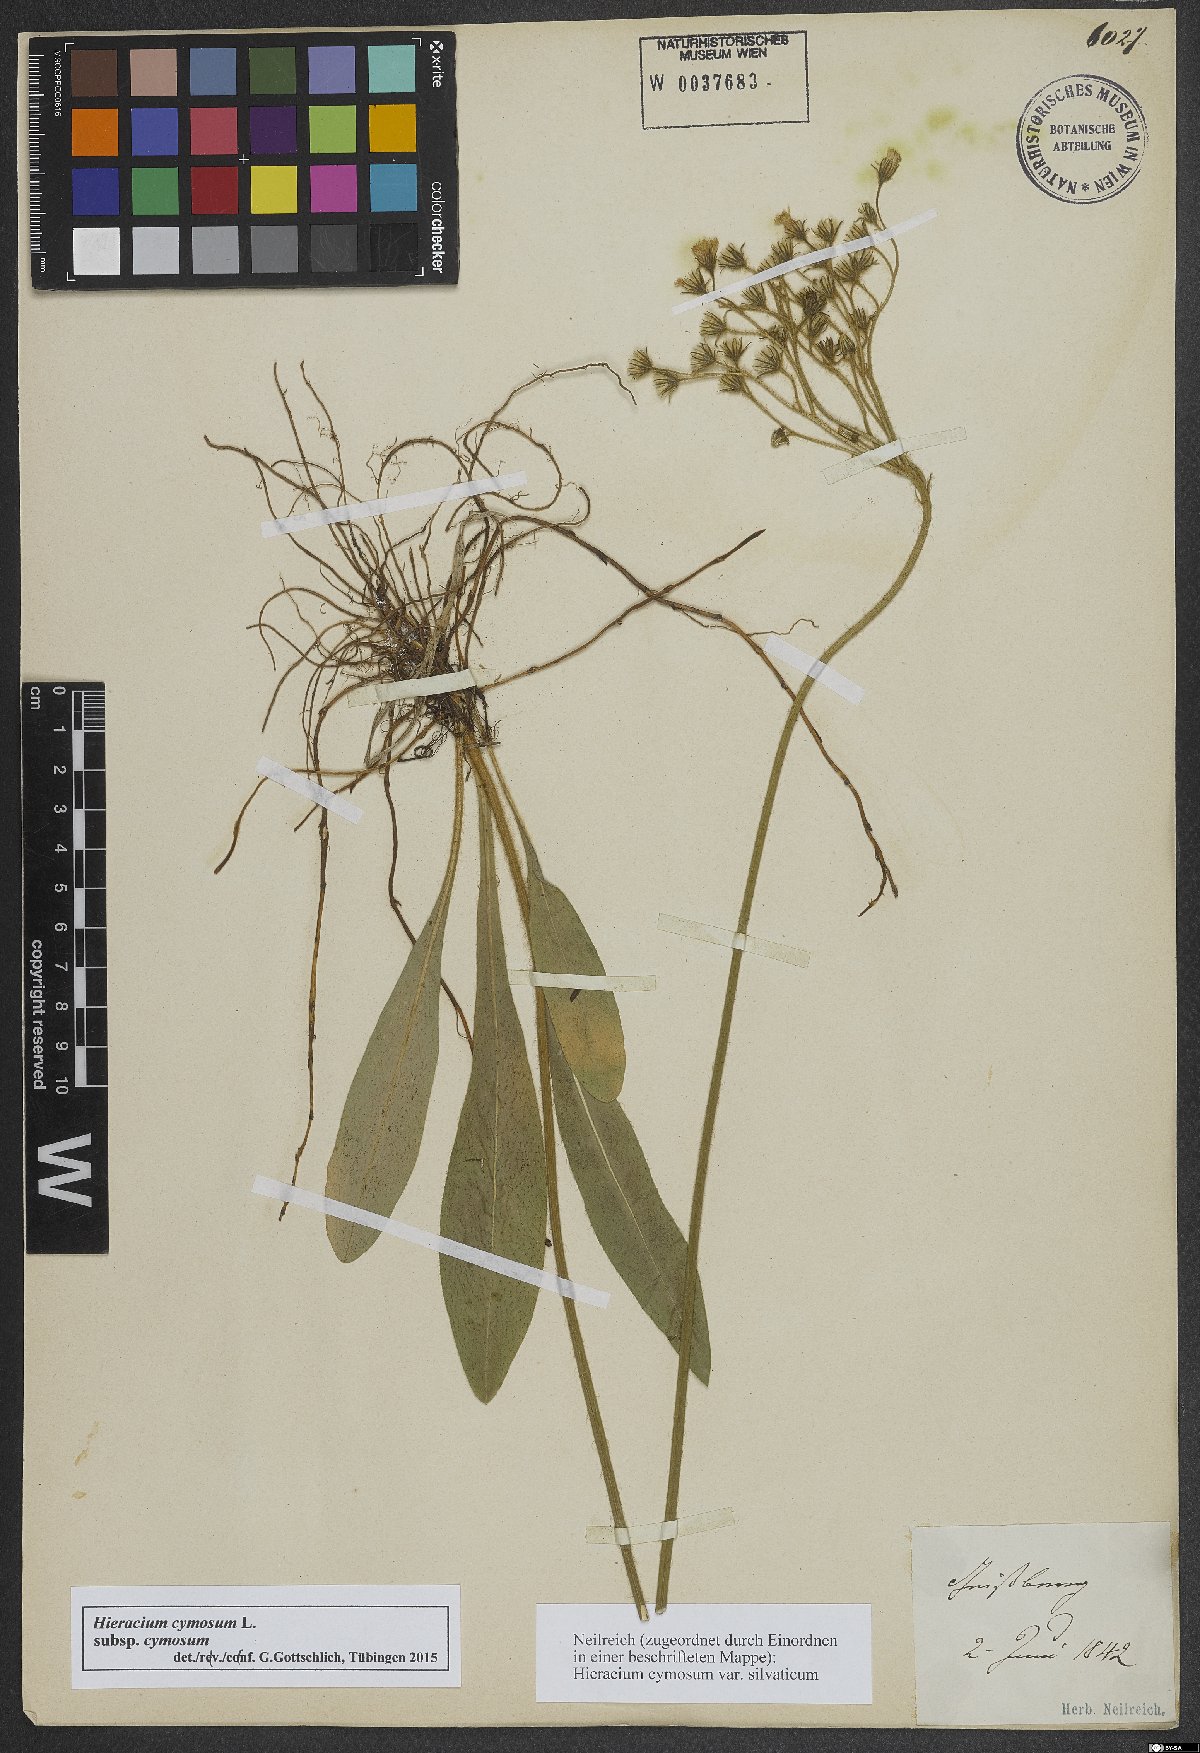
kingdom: Plantae
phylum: Tracheophyta
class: Magnoliopsida
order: Asterales
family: Asteraceae
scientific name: Asteraceae
